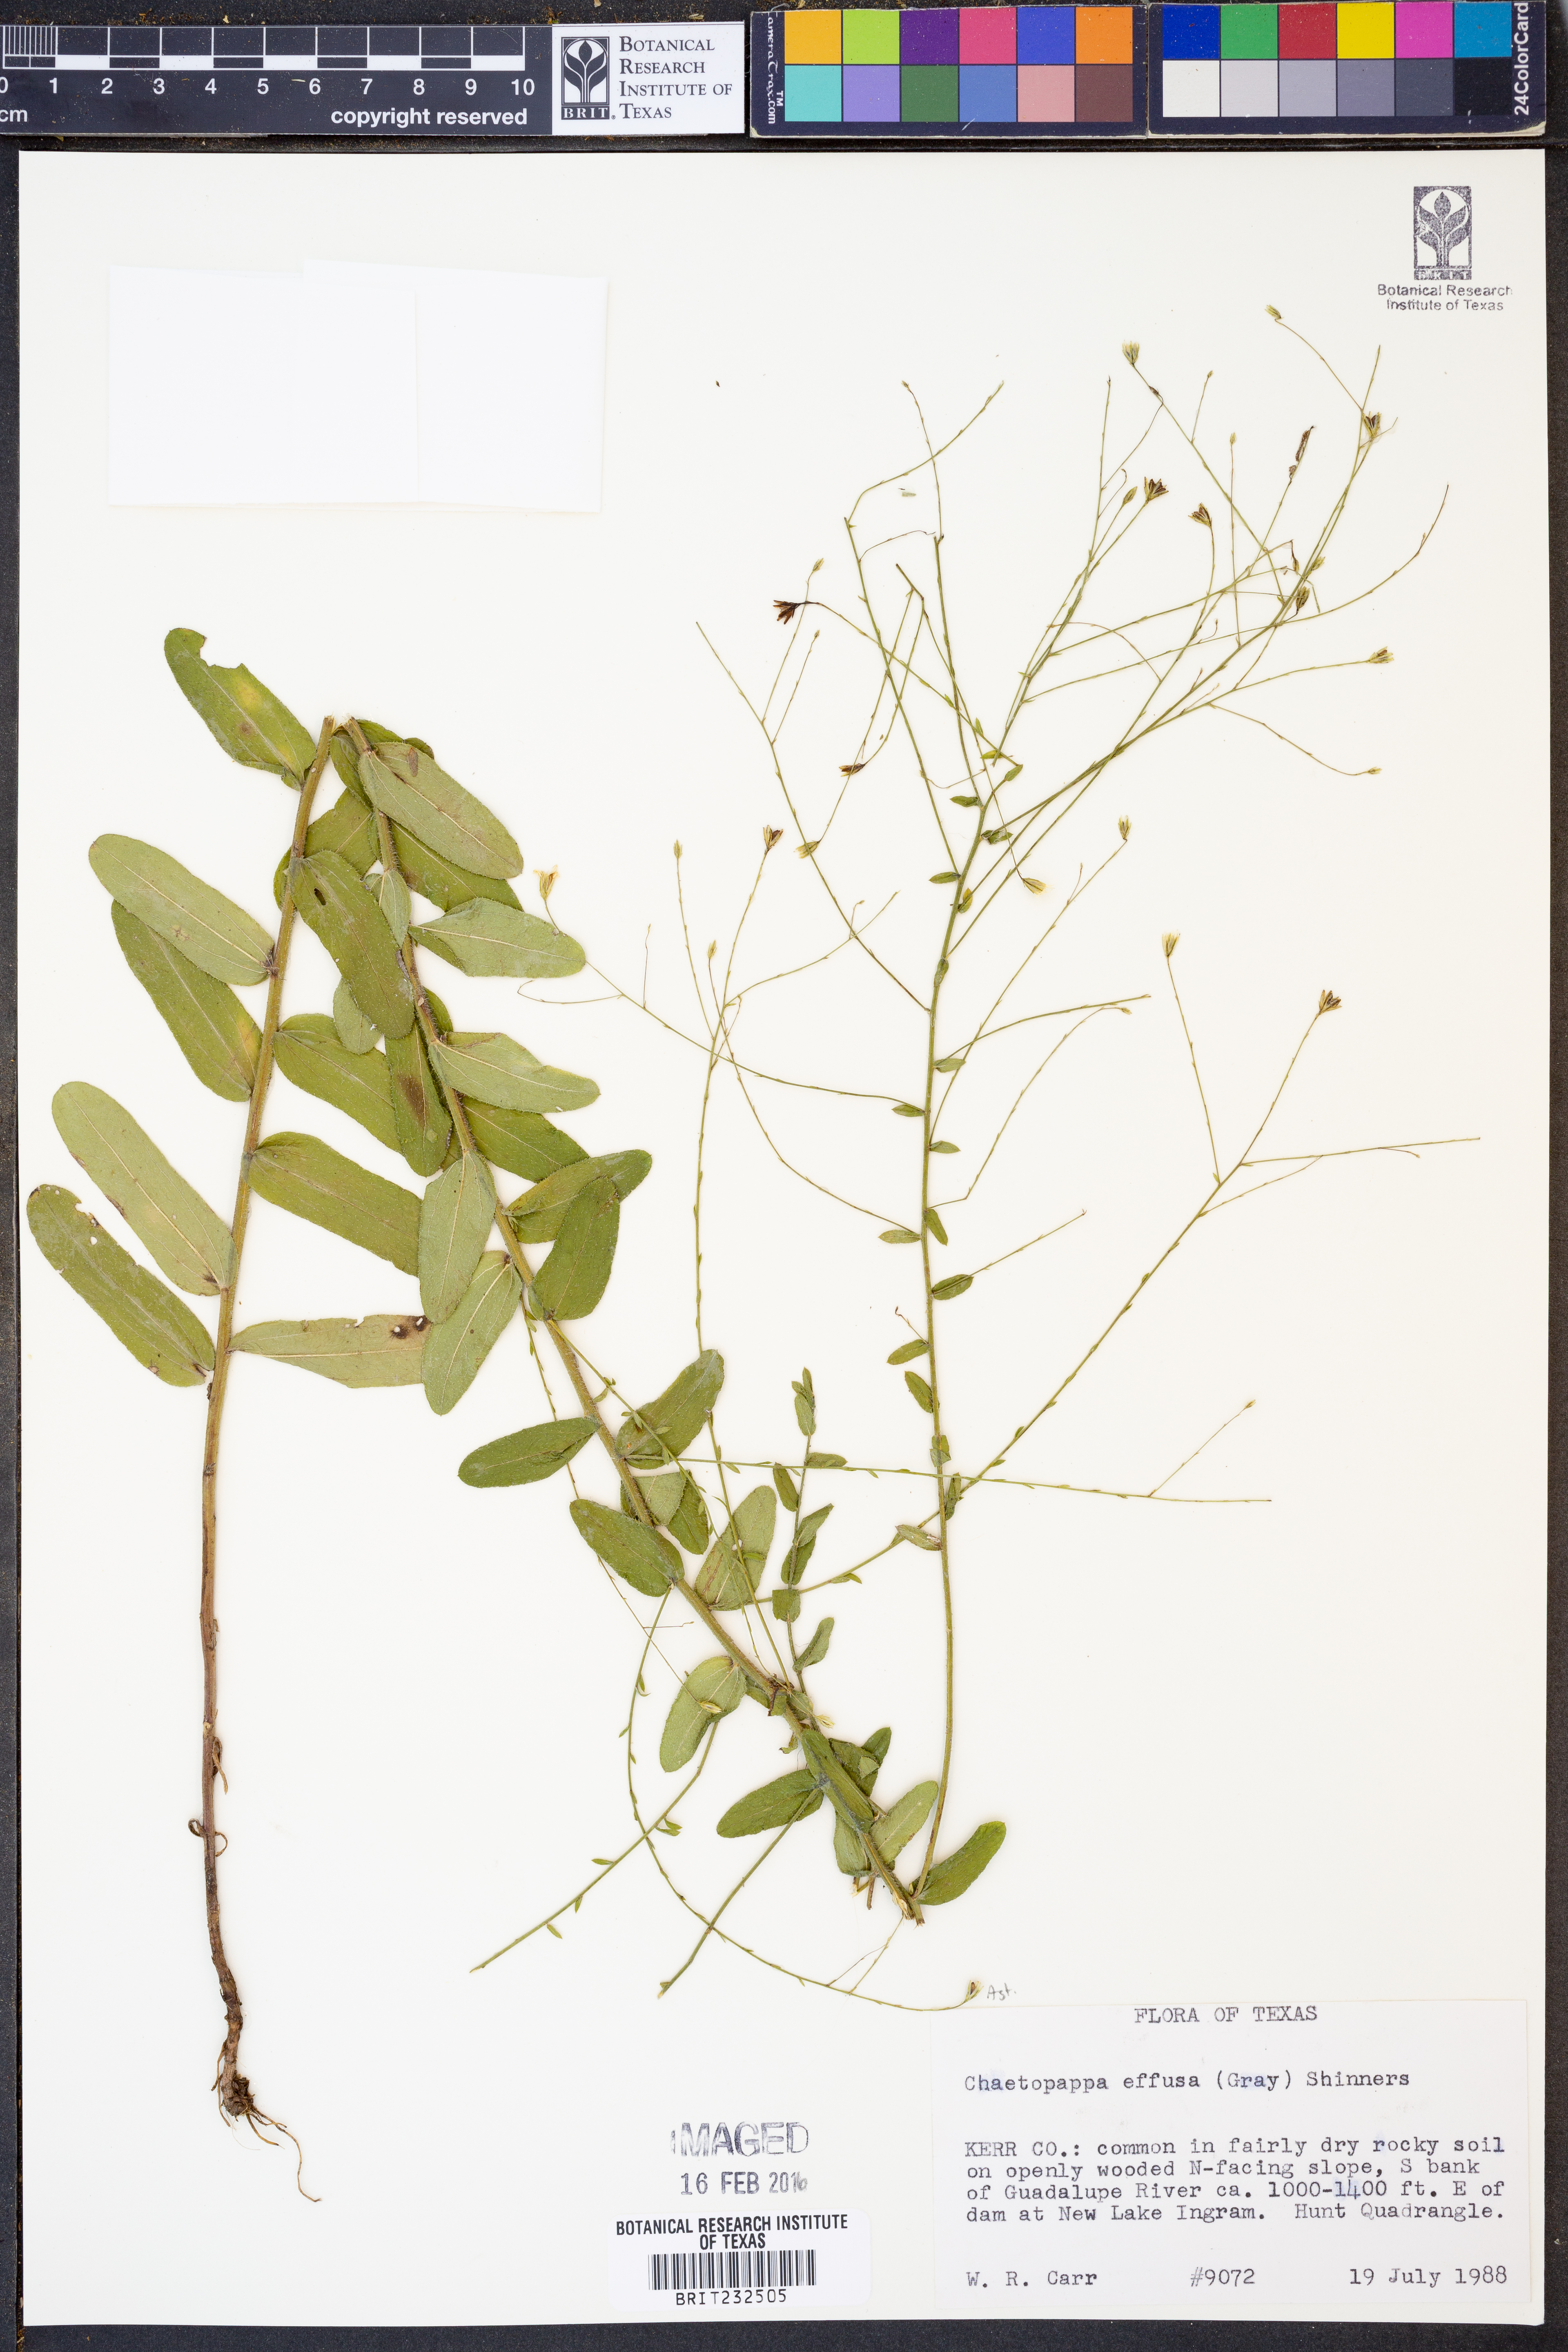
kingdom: Plantae
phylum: Tracheophyta
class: Magnoliopsida
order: Asterales
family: Asteraceae
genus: Chaetopappa
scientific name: Chaetopappa effusa
